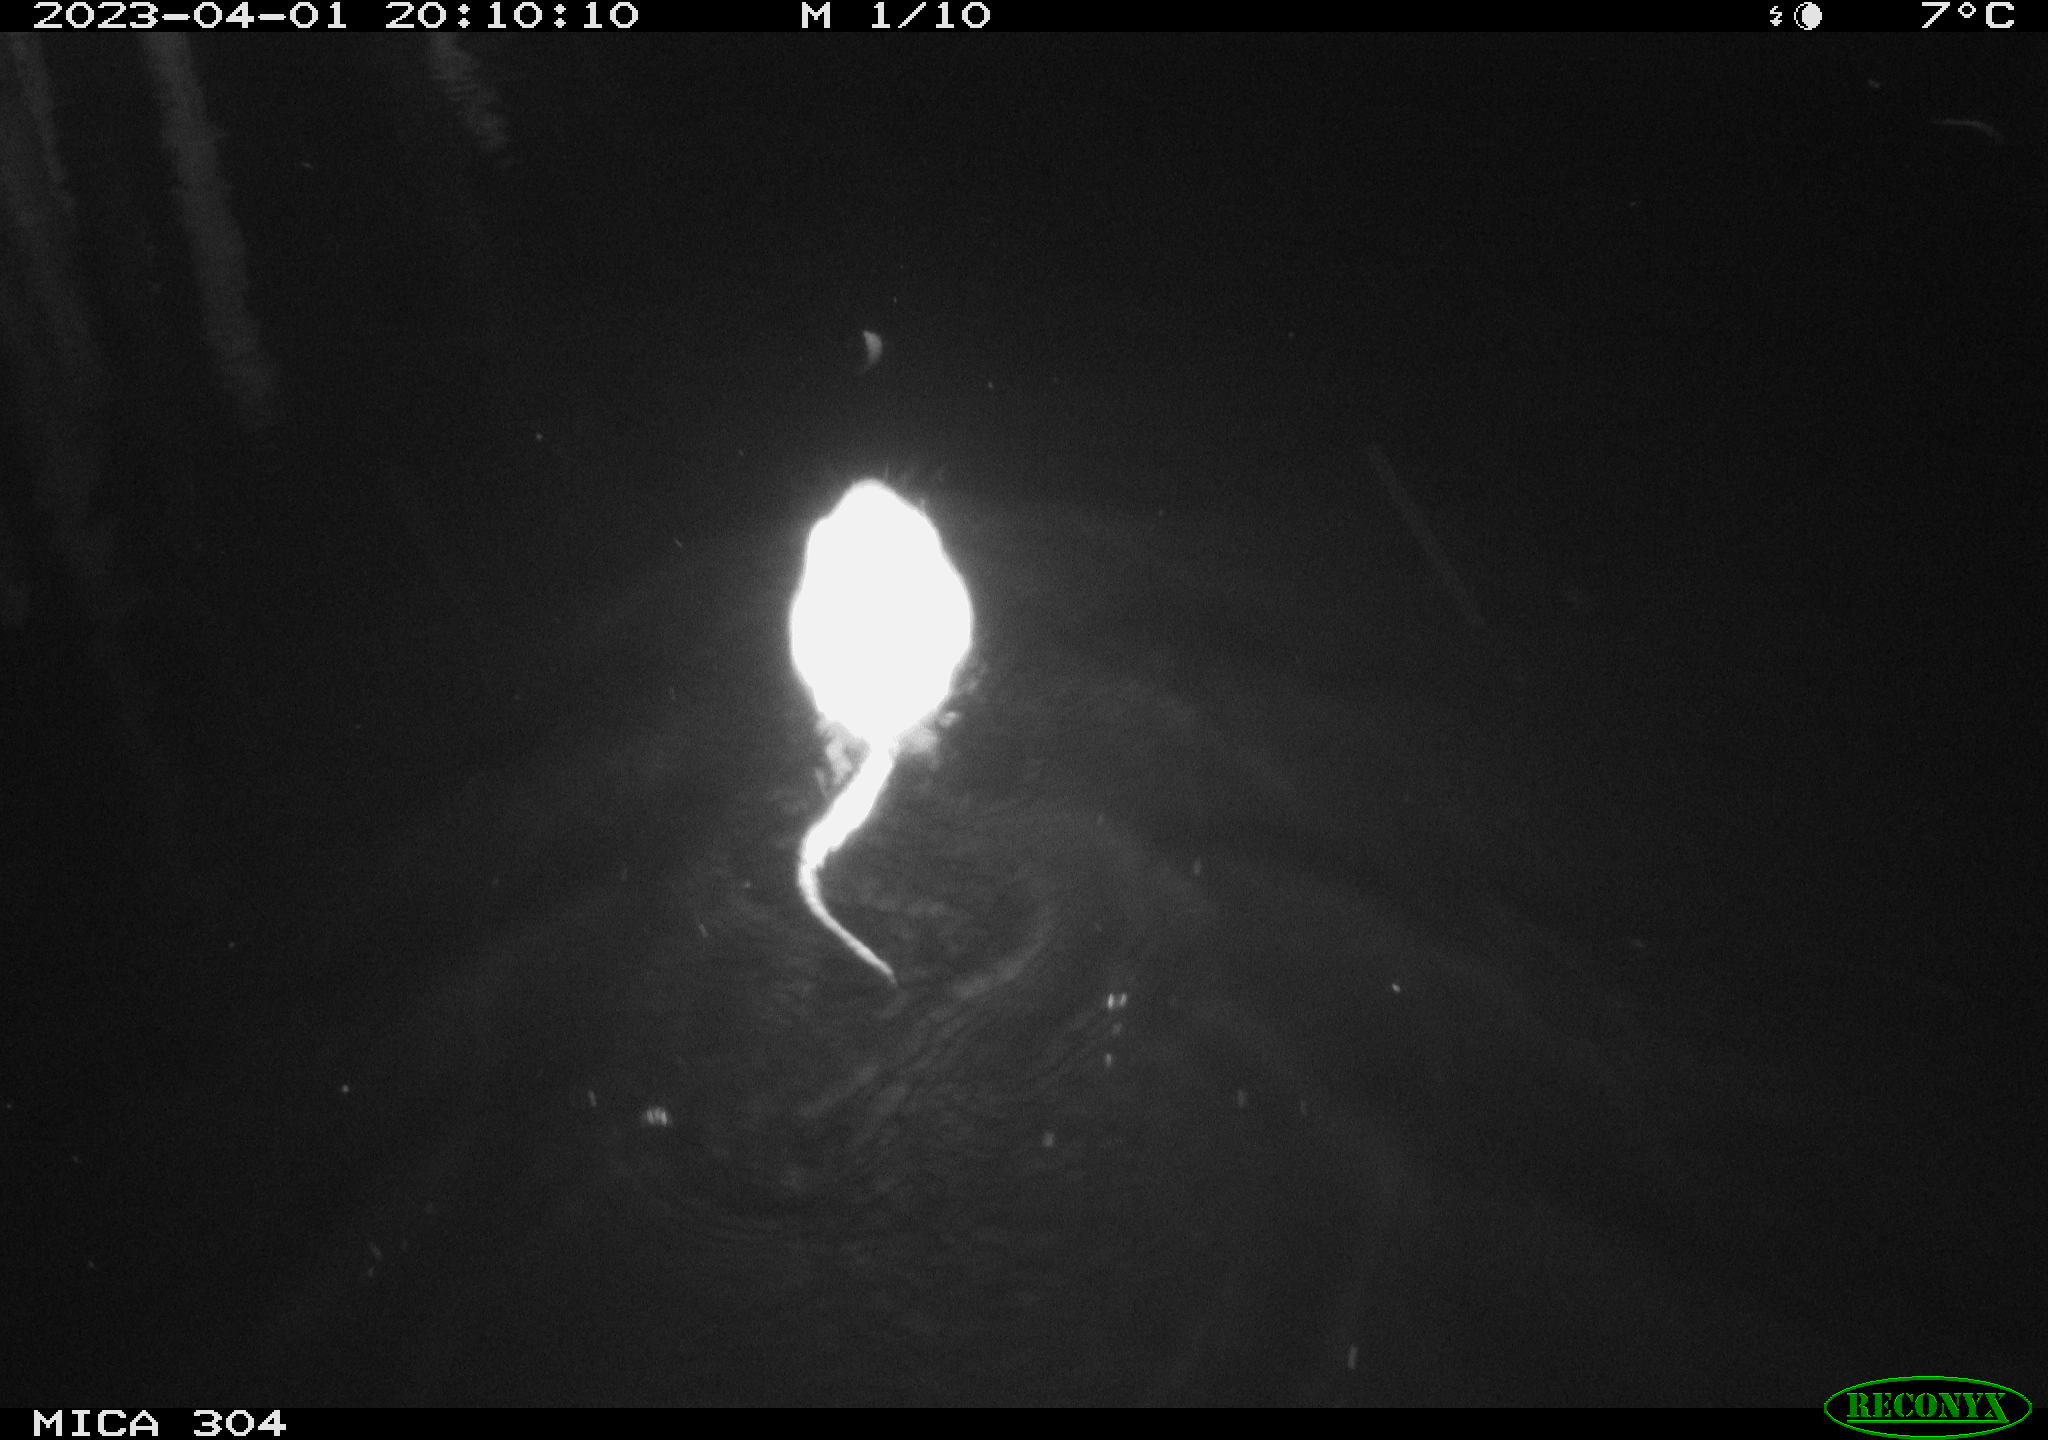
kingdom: Animalia
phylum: Chordata
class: Mammalia
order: Rodentia
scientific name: Rodentia
